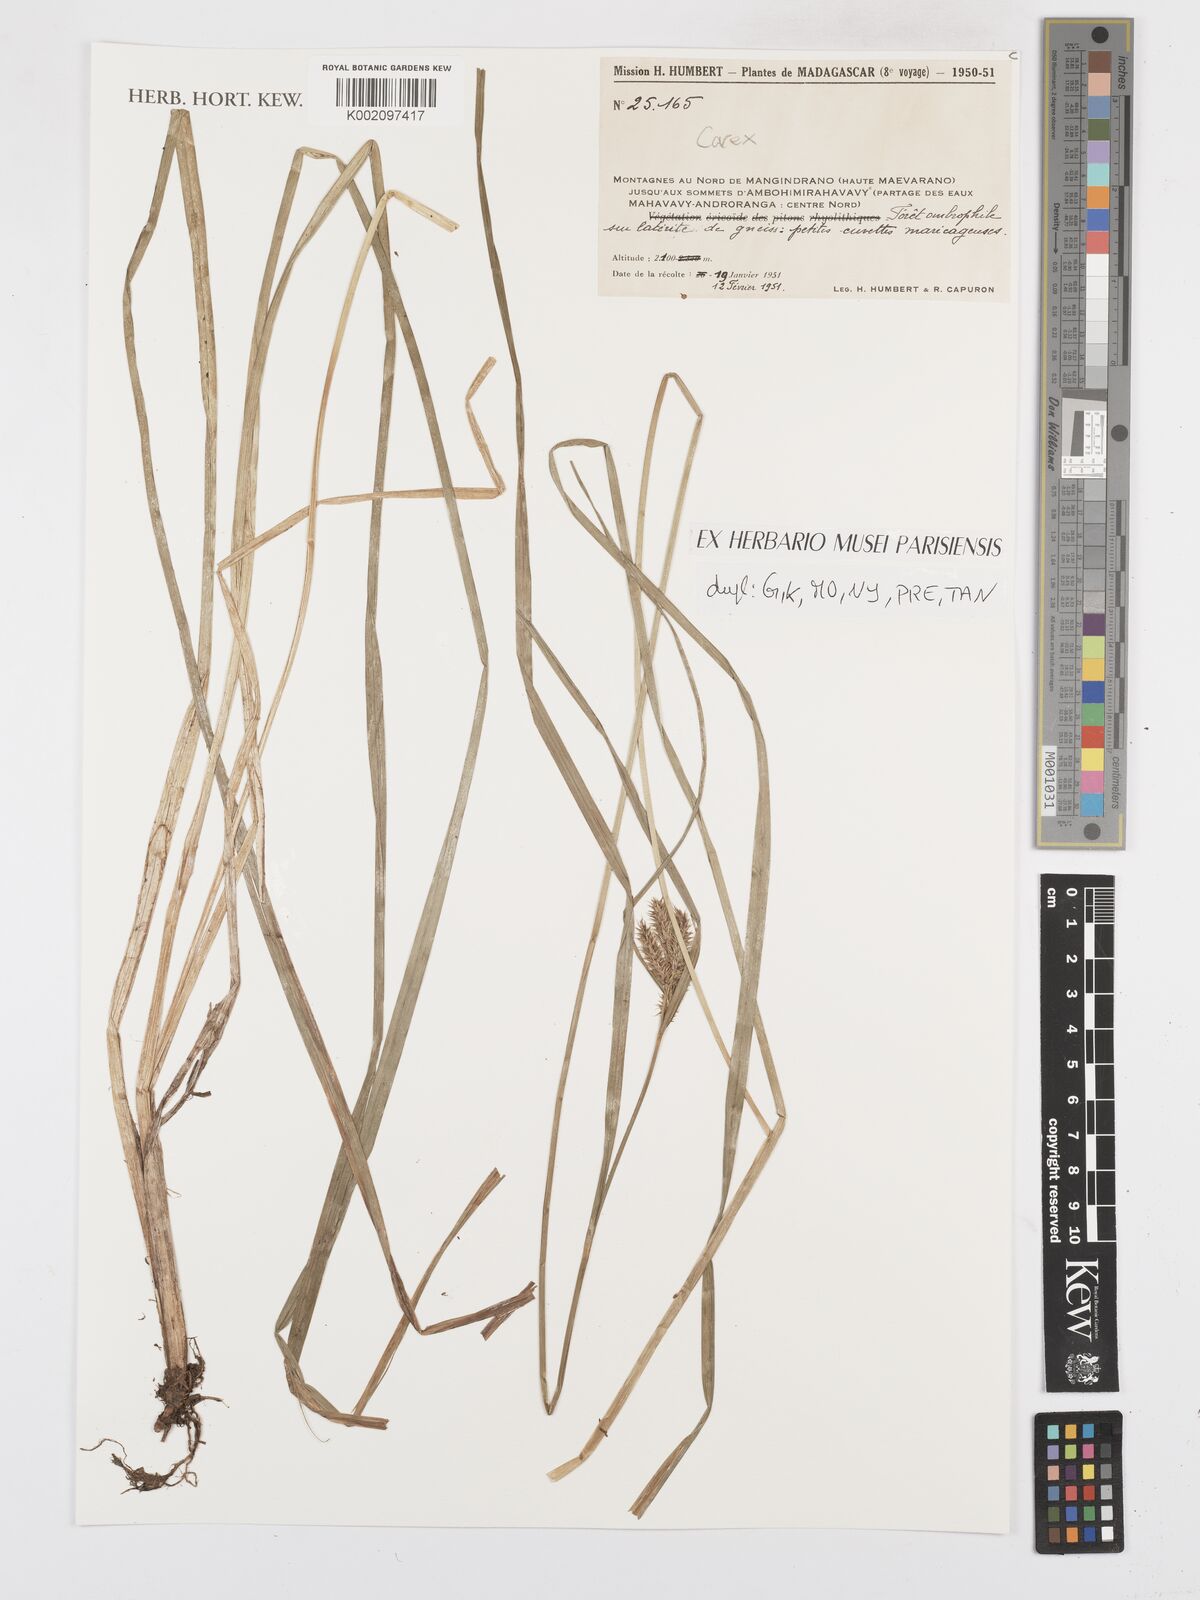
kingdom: Plantae
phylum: Tracheophyta
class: Liliopsida
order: Poales
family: Cyperaceae
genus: Carex
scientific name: Carex
